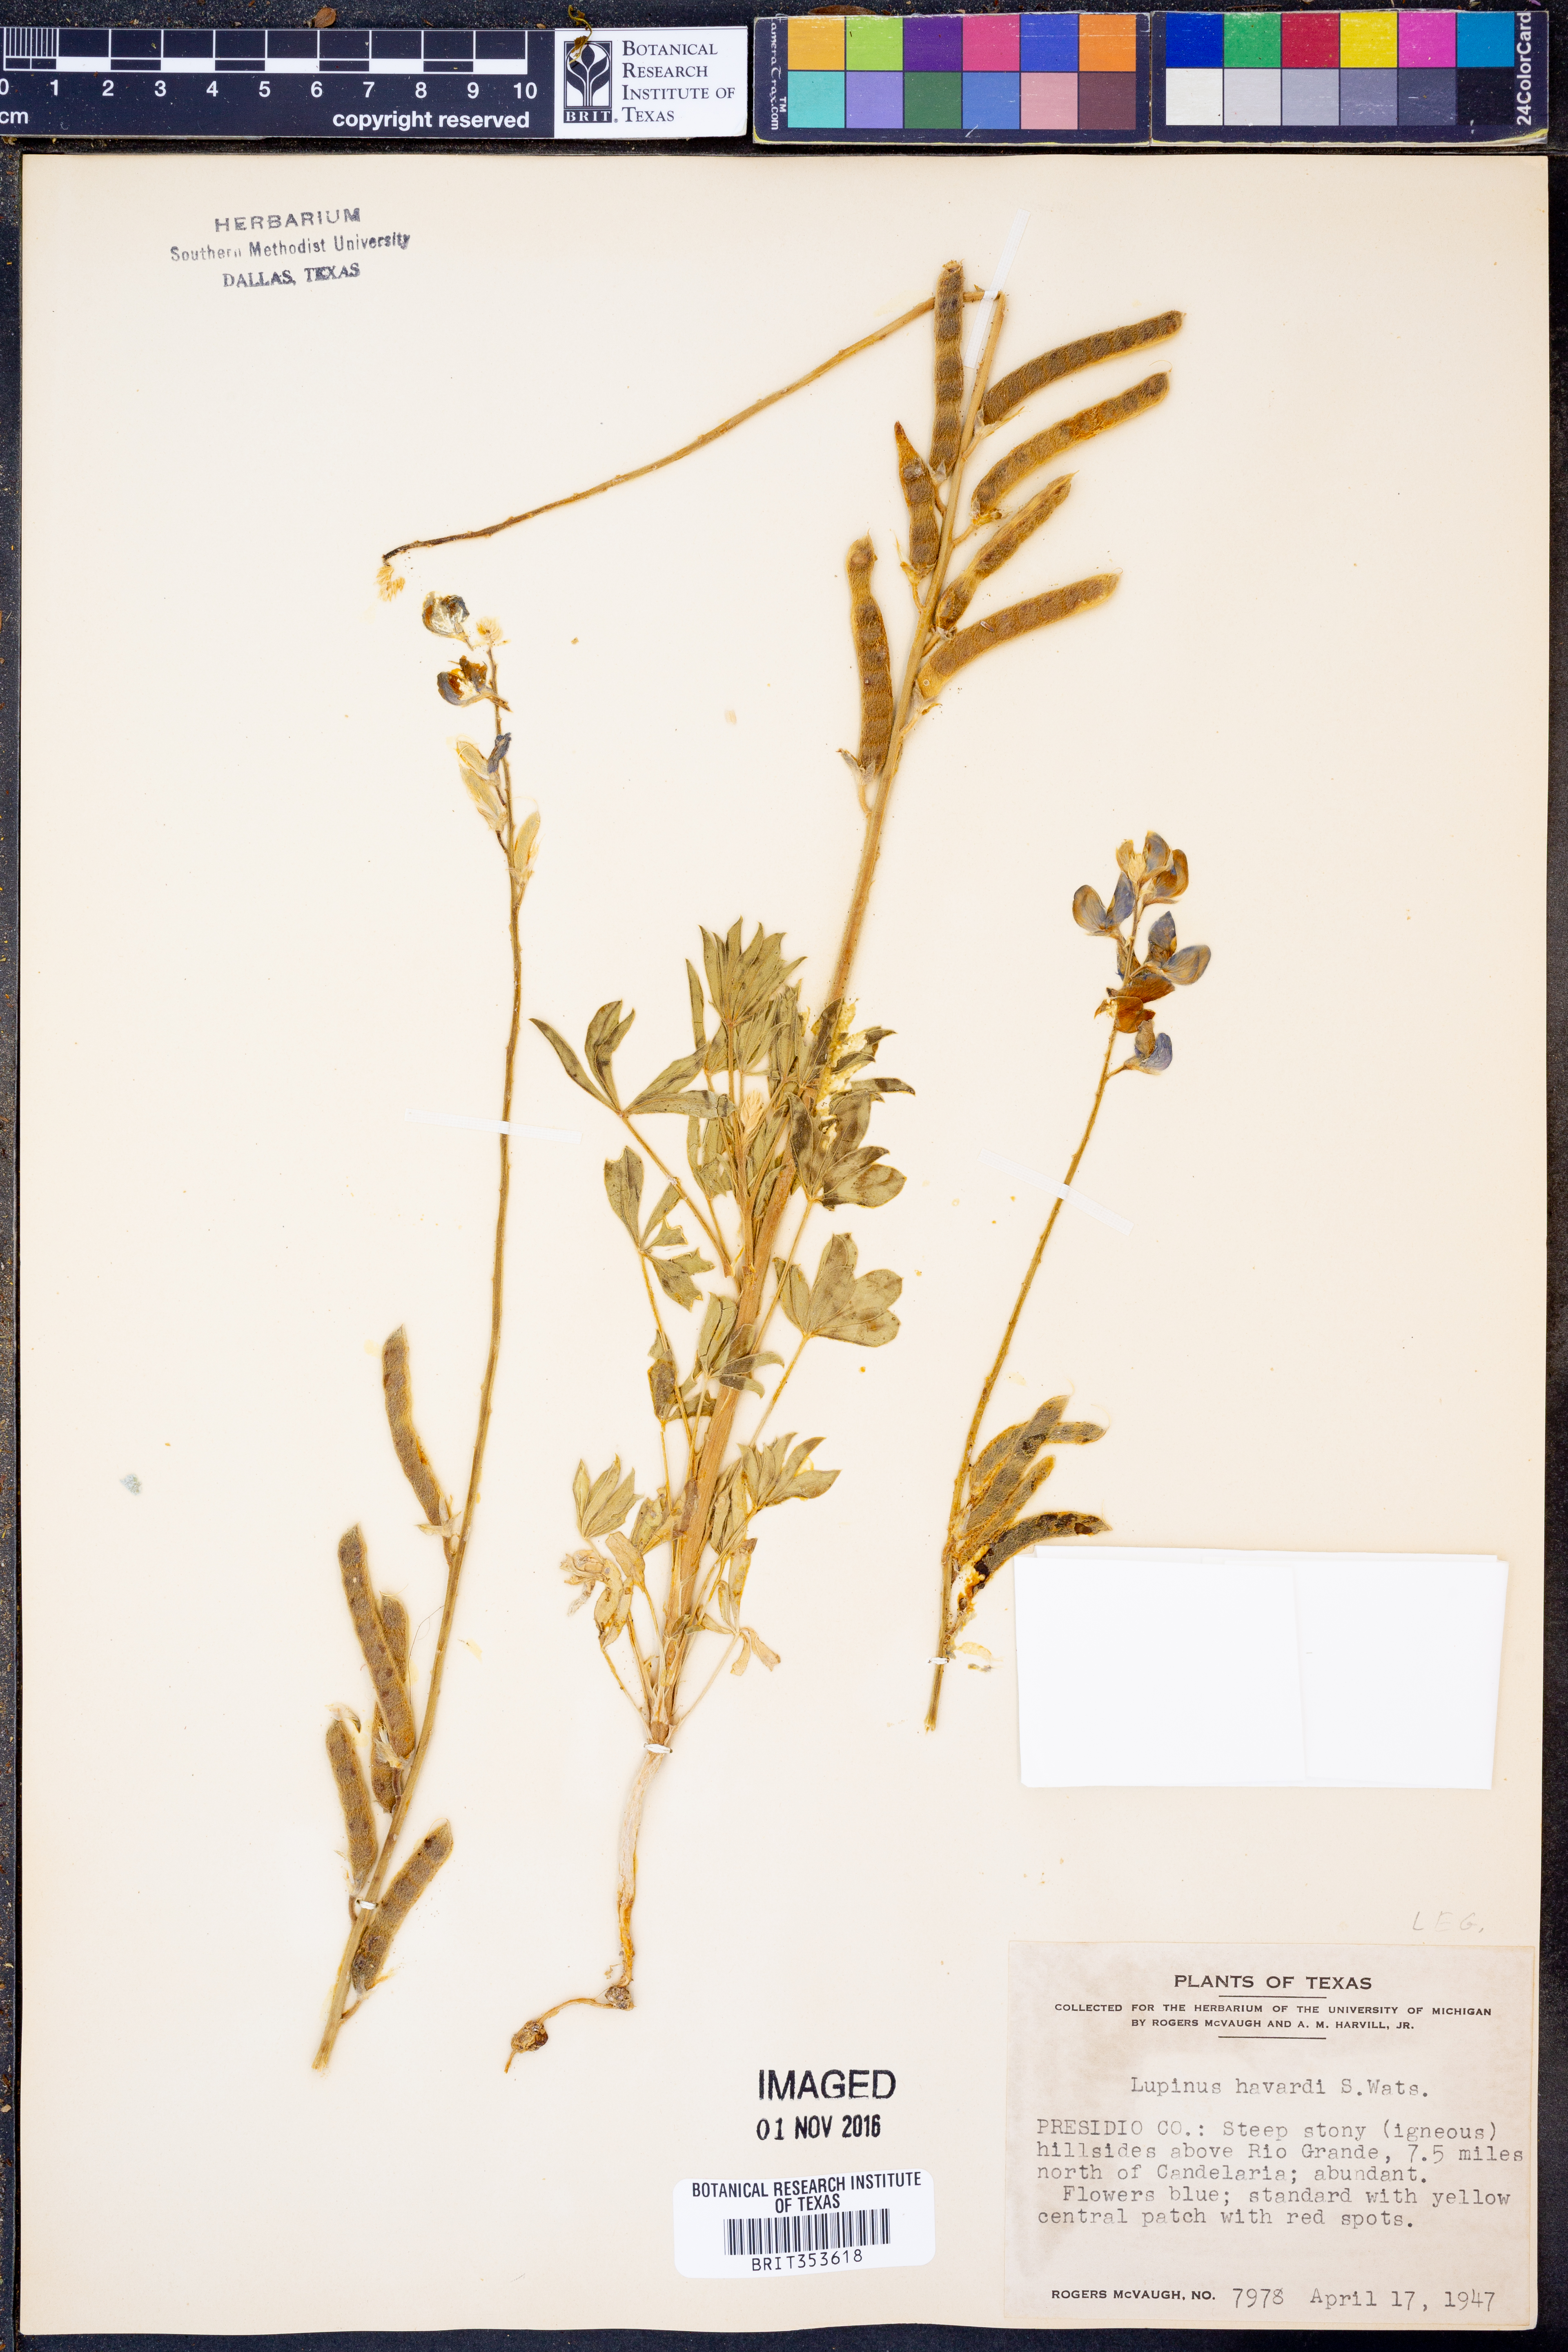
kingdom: Plantae
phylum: Tracheophyta
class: Magnoliopsida
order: Fabales
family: Fabaceae
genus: Lupinus
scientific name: Lupinus havardii
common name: Chisos bluebonnet
